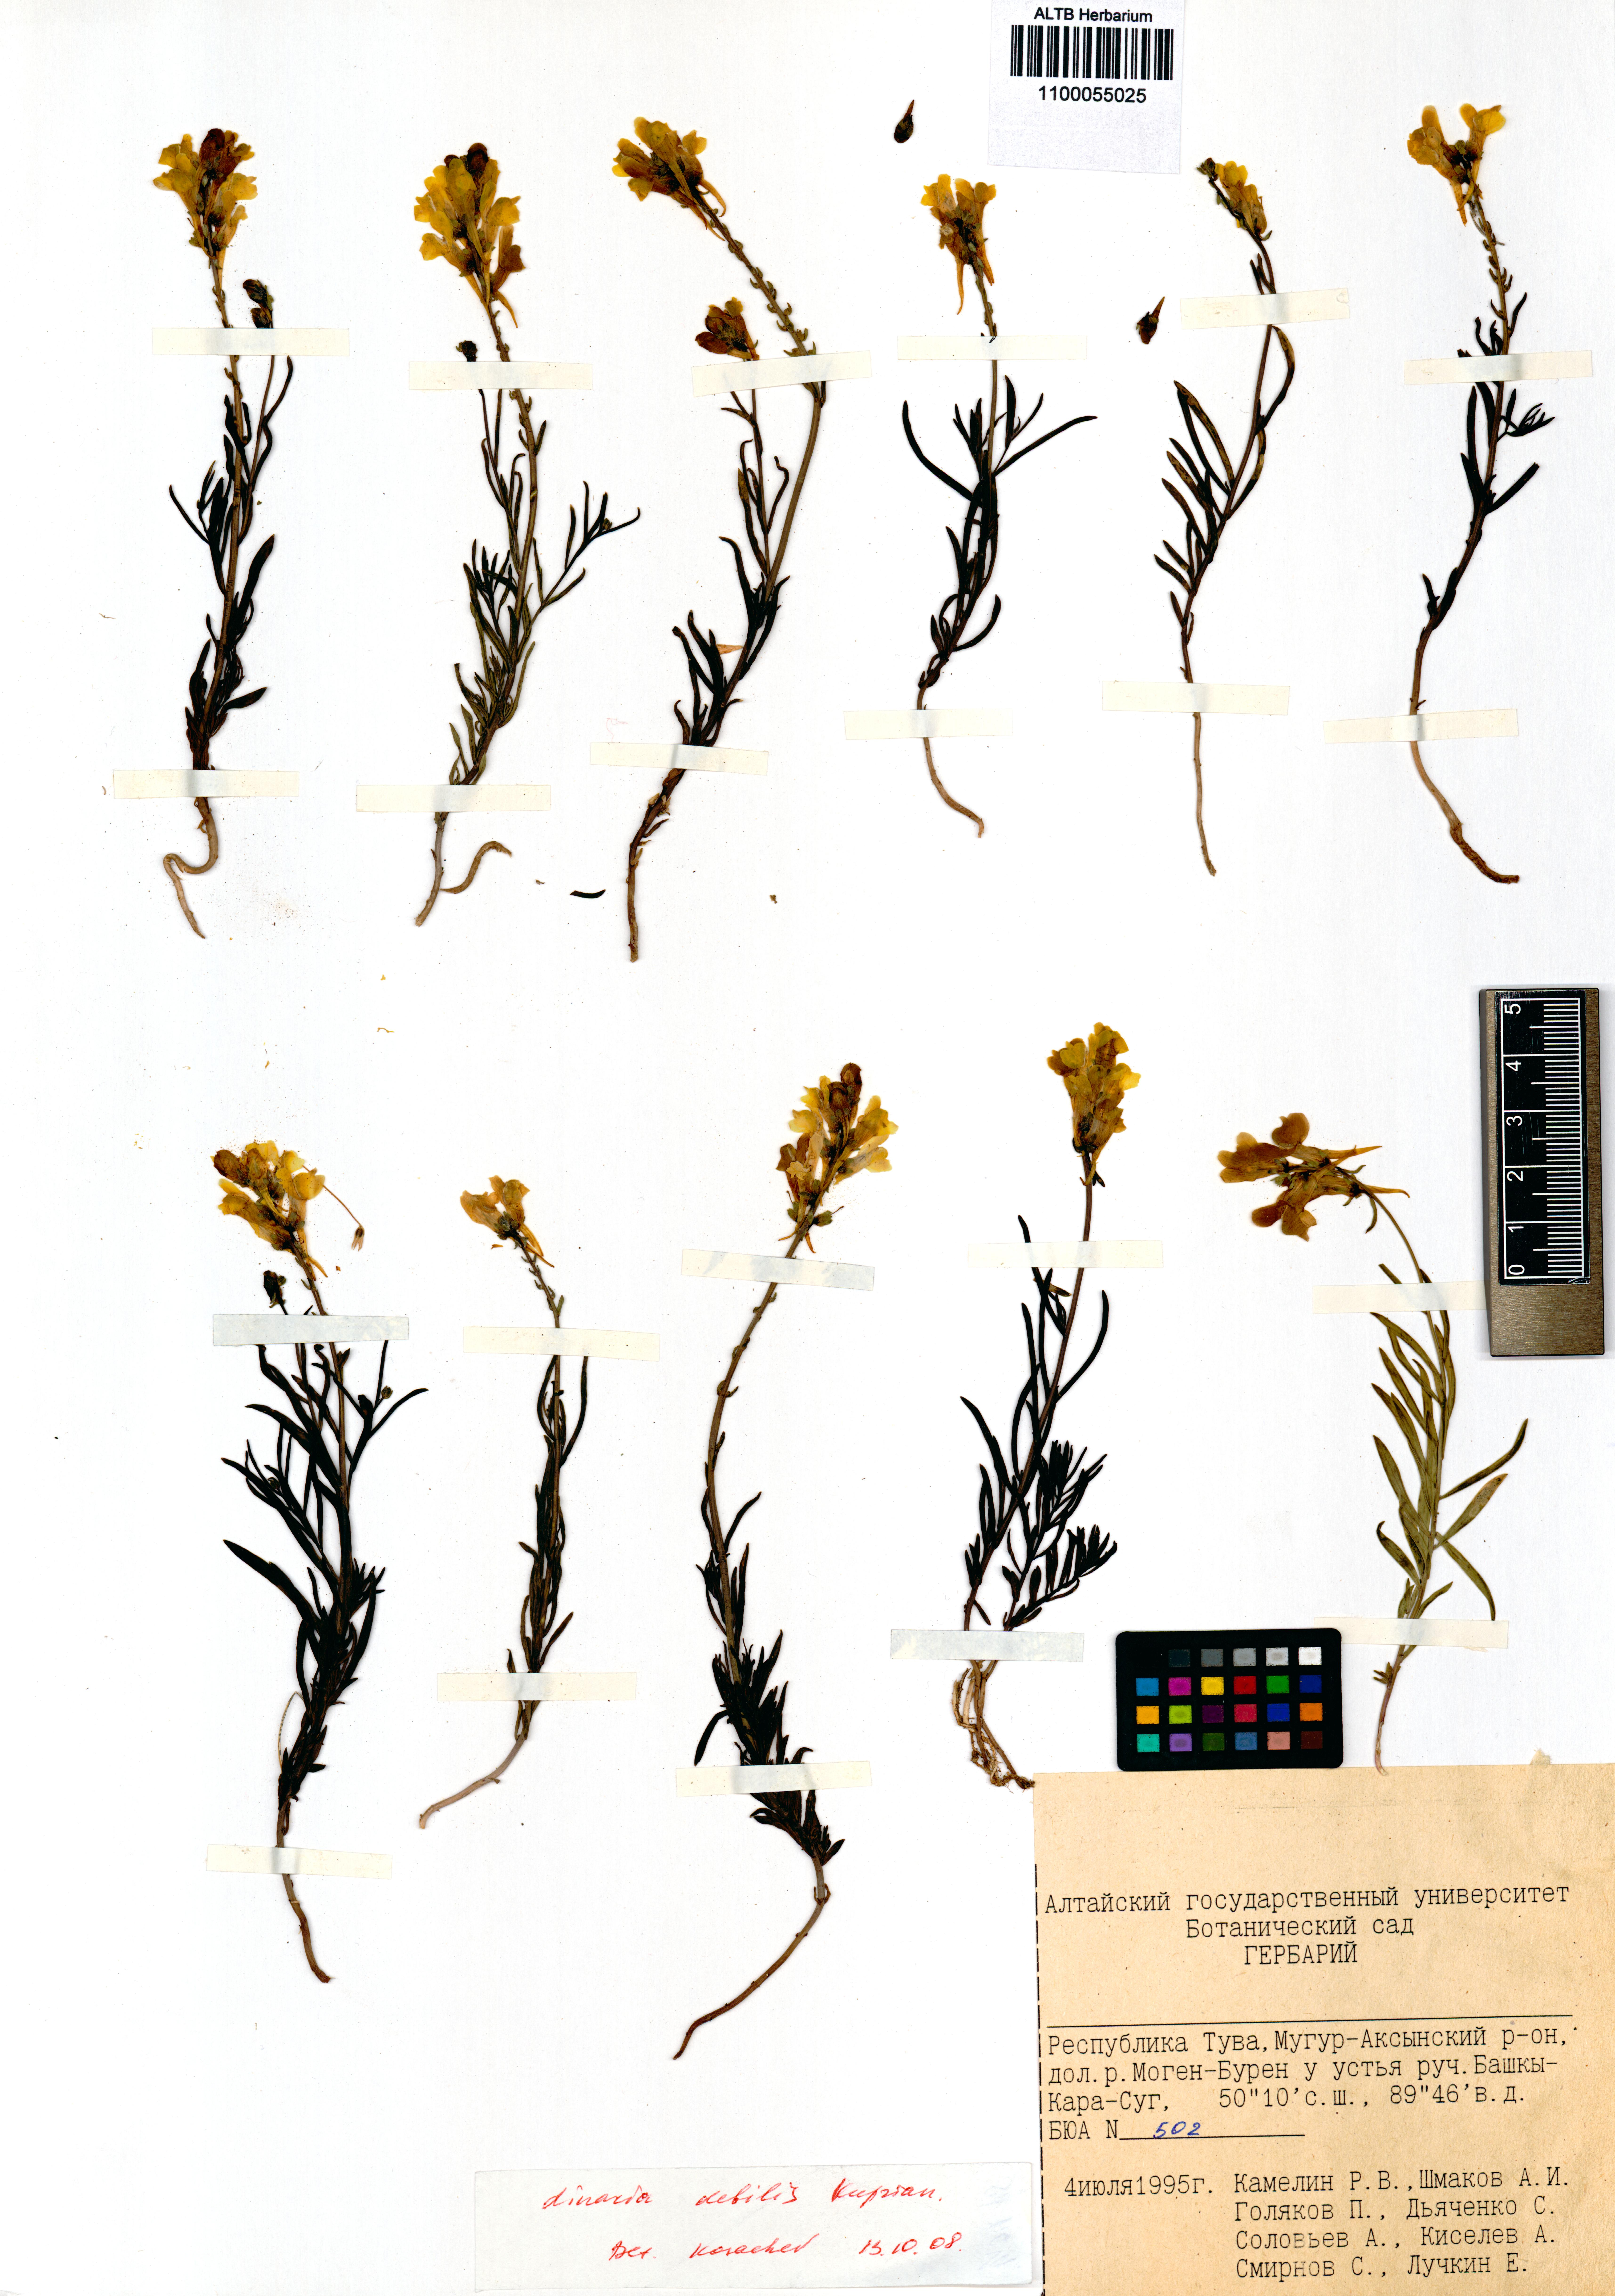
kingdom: Plantae
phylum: Tracheophyta
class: Magnoliopsida
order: Lamiales
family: Plantaginaceae
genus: Linaria
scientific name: Linaria altaica
